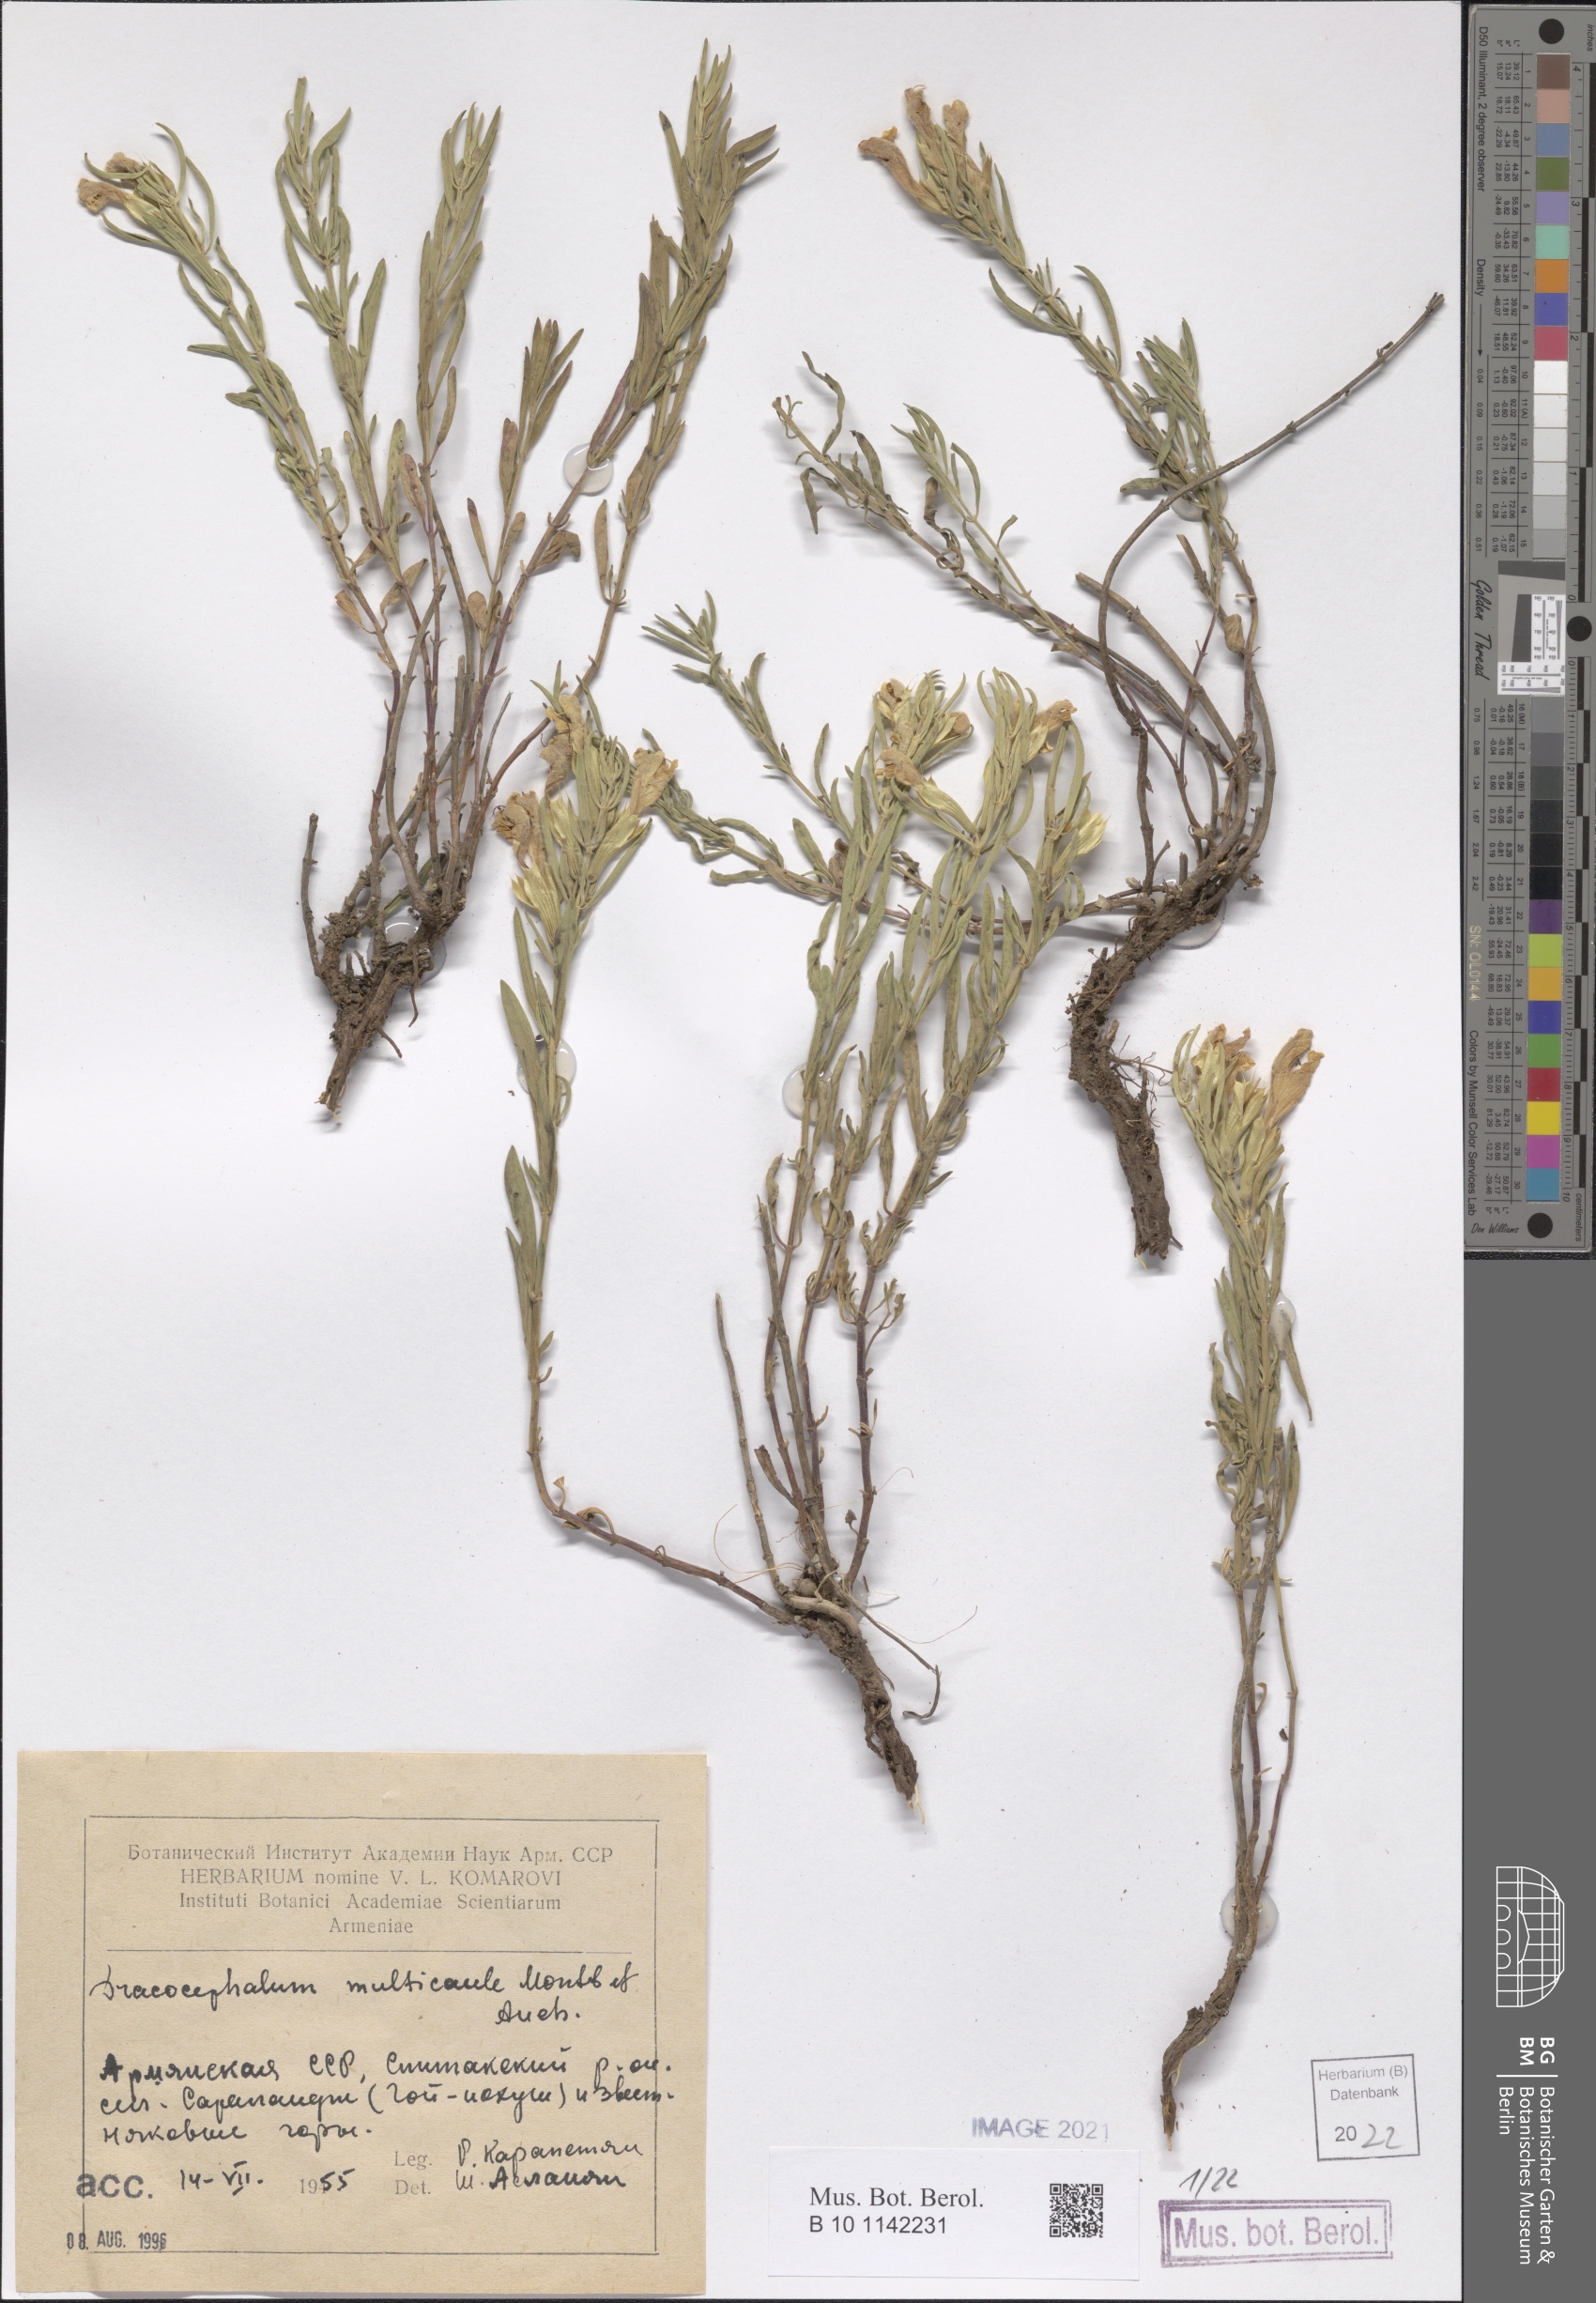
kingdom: Plantae
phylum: Tracheophyta
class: Magnoliopsida
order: Lamiales
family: Lamiaceae
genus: Dracocephalum
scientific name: Dracocephalum multicaule
